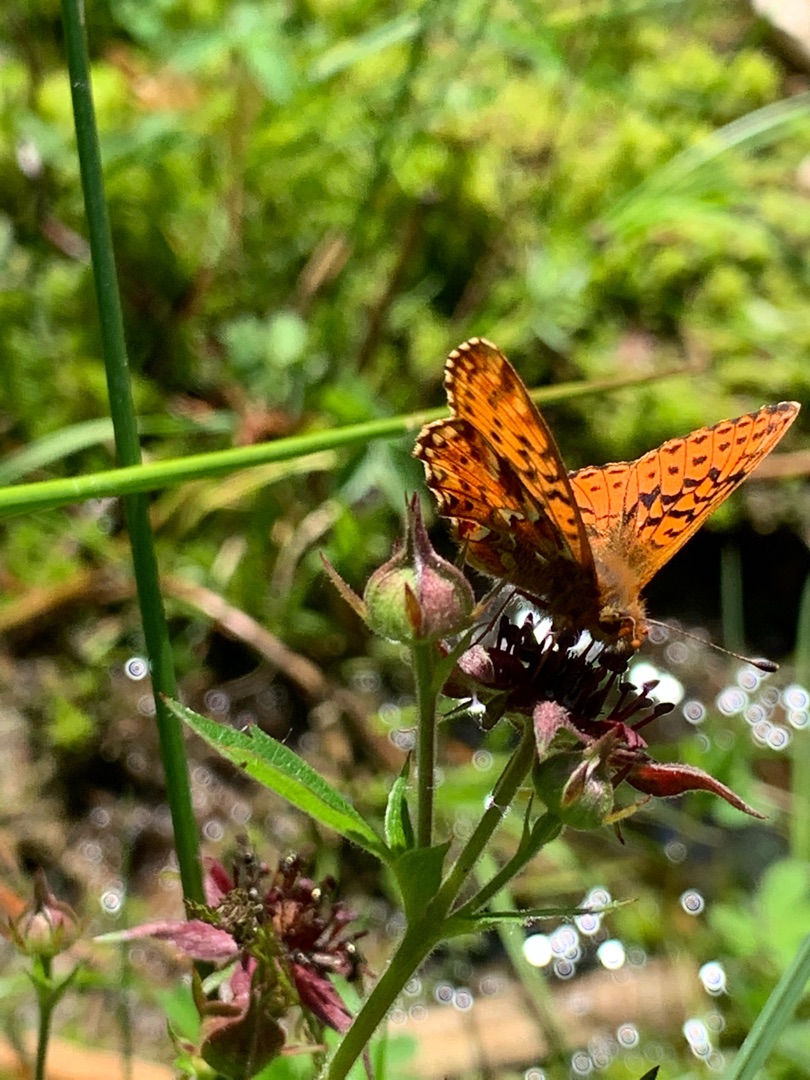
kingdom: Animalia
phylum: Arthropoda
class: Insecta
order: Lepidoptera
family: Nymphalidae
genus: Boloria
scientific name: Boloria aquilonaris
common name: Moseperlemorsommerfugl
